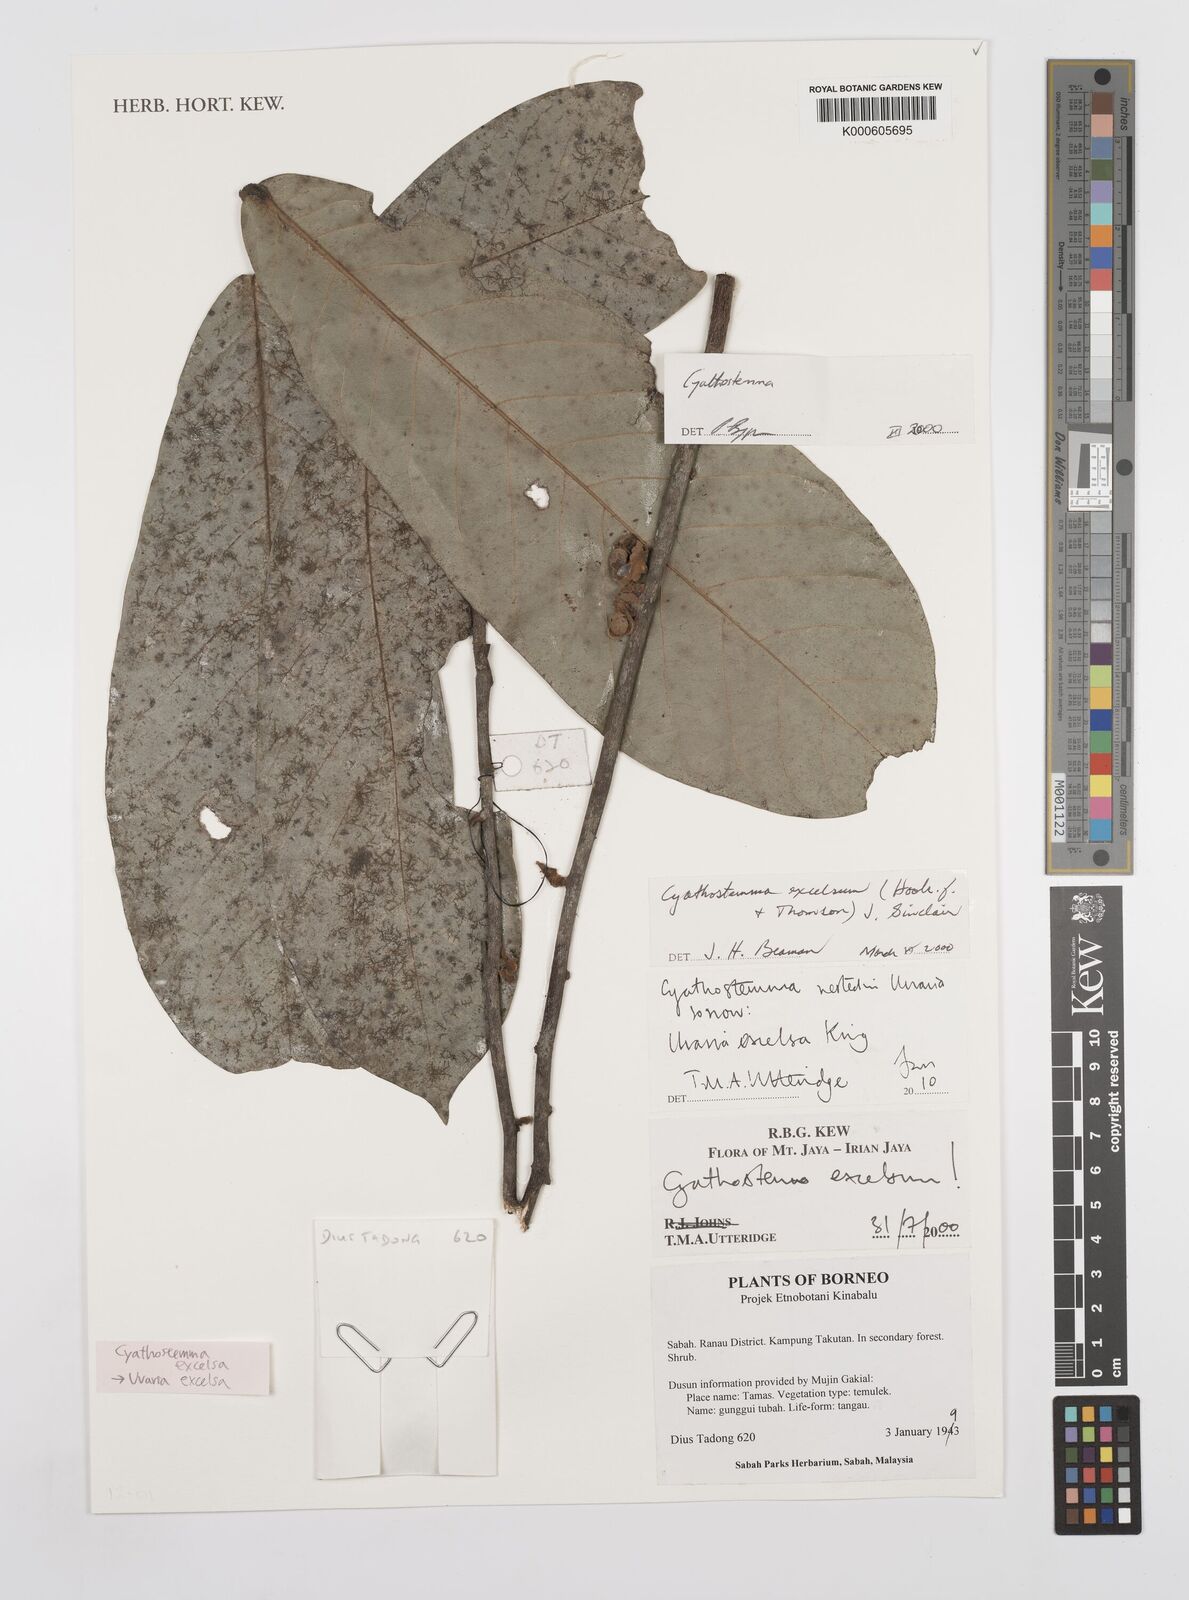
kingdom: Plantae
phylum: Tracheophyta
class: Magnoliopsida
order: Magnoliales
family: Annonaceae
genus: Uvaria
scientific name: Uvaria excelsa
